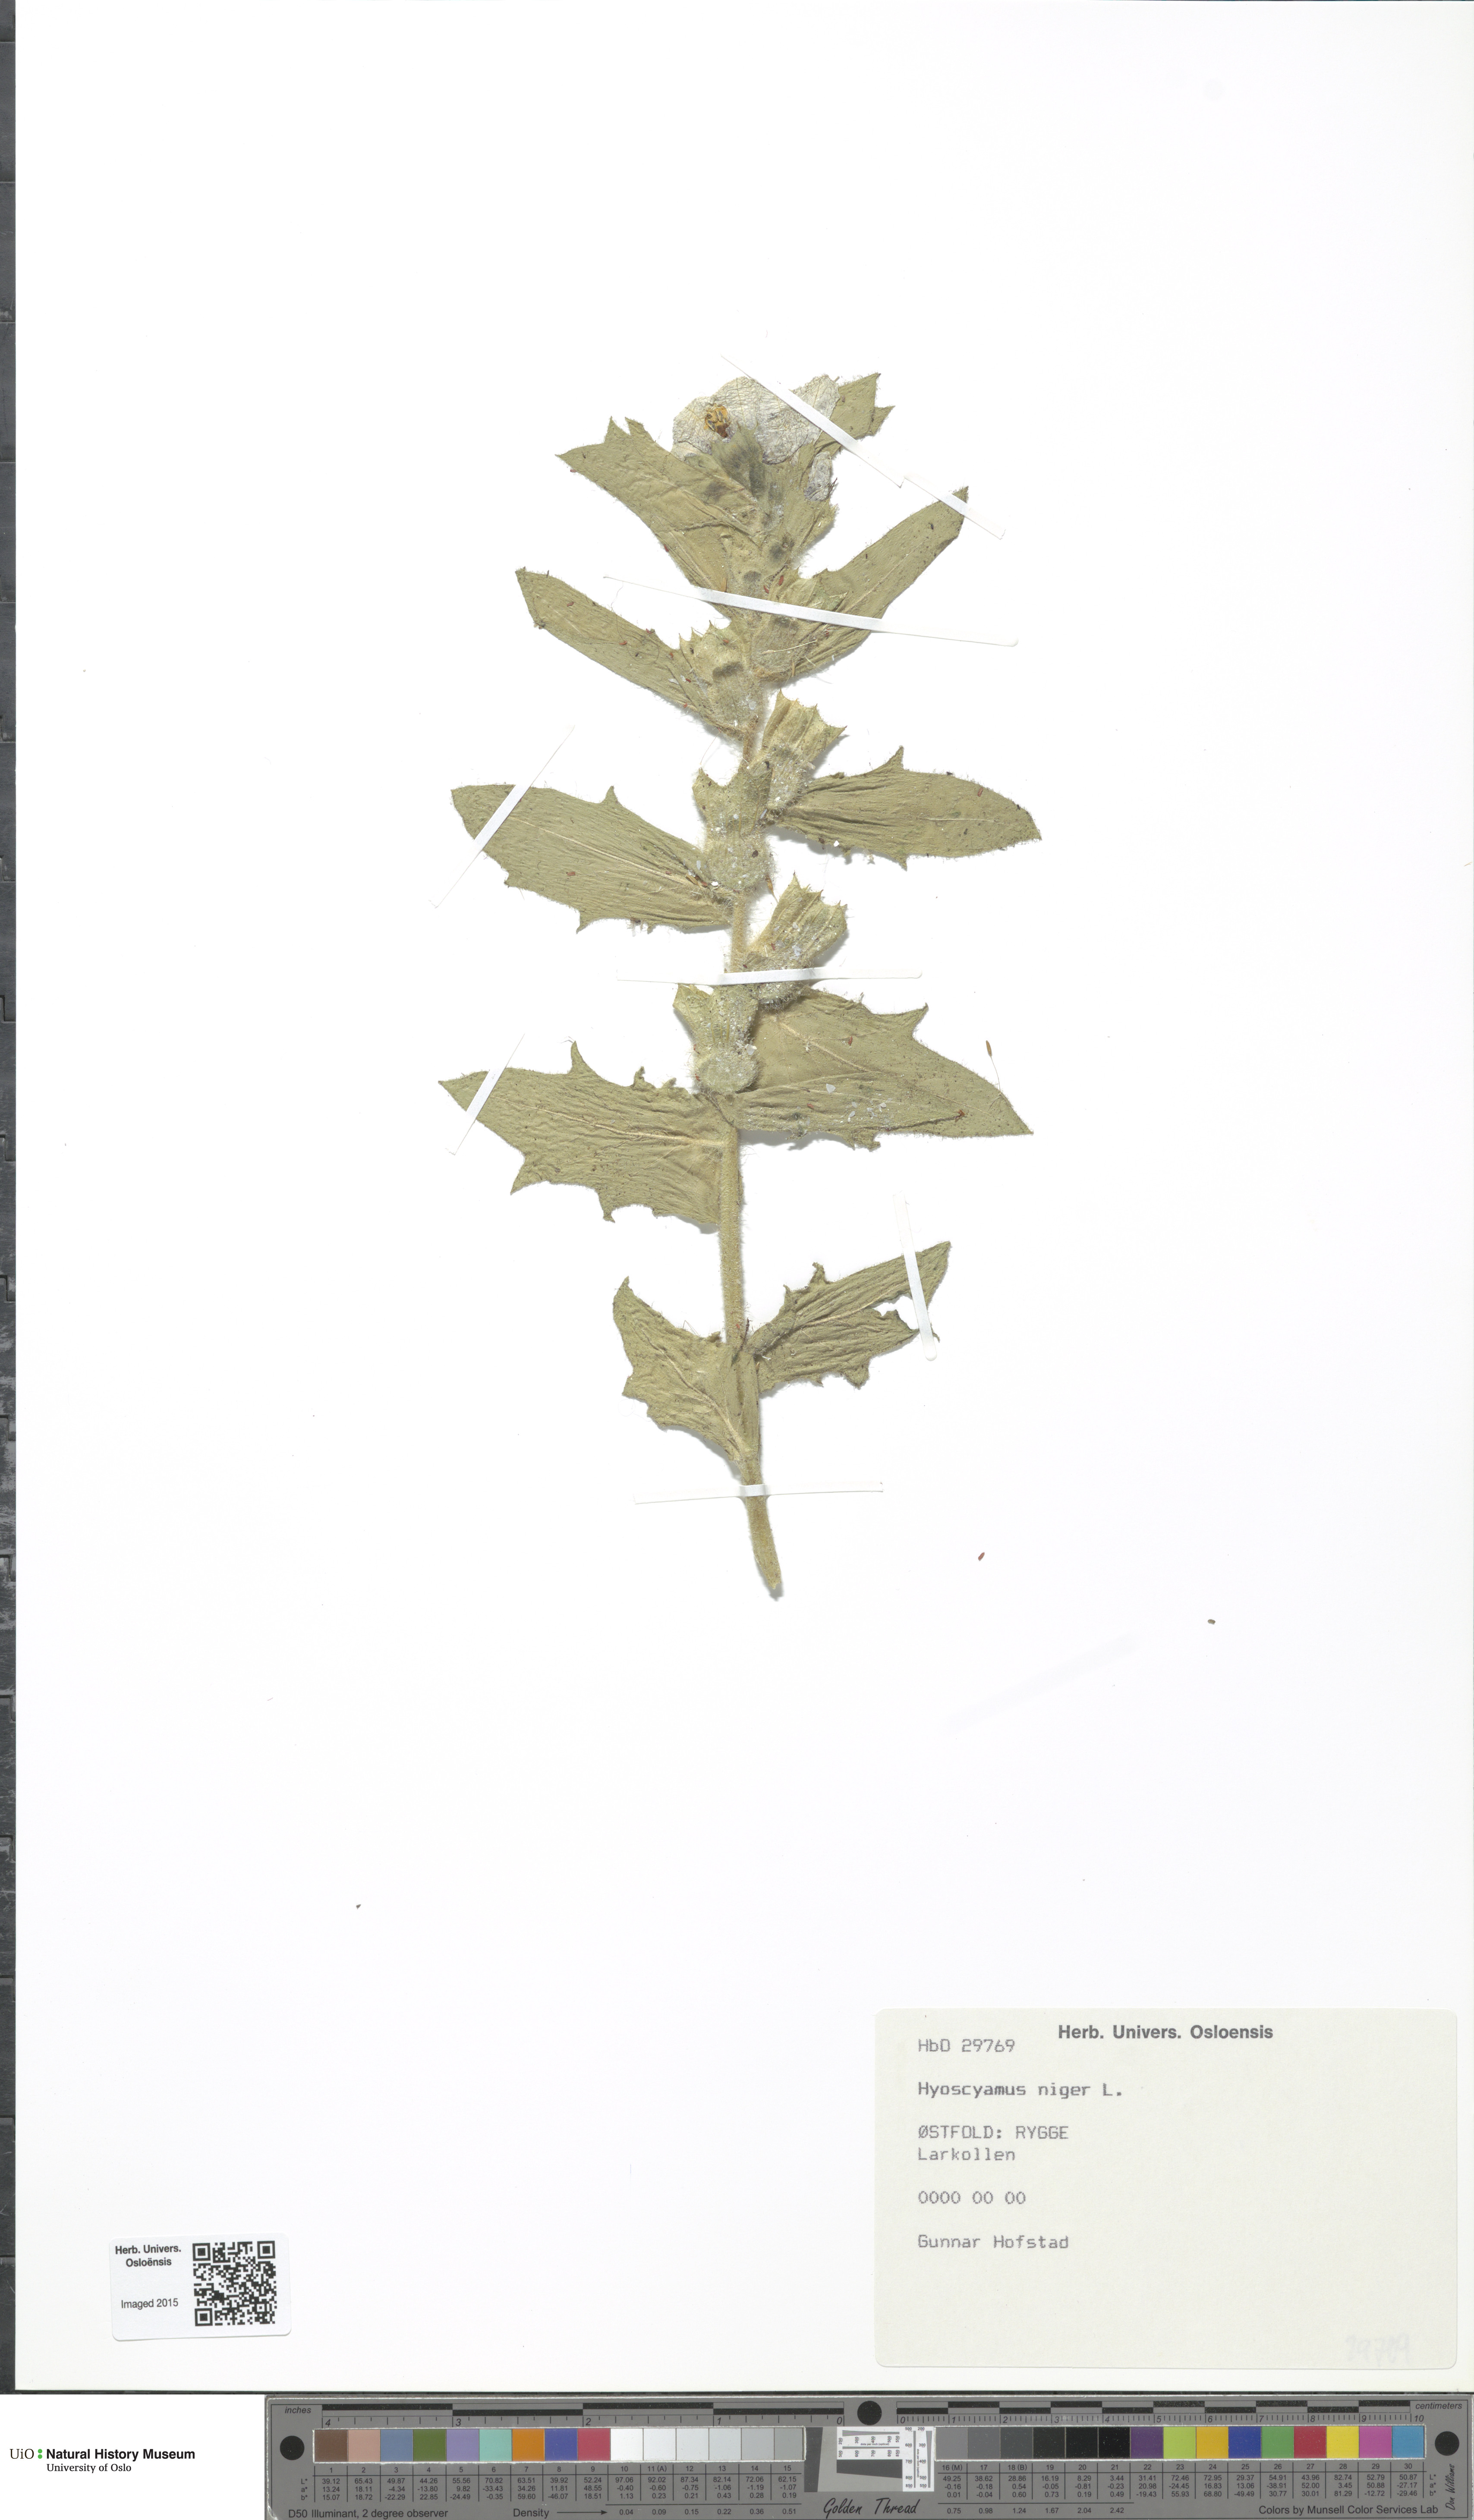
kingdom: Plantae
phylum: Tracheophyta
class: Magnoliopsida
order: Solanales
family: Solanaceae
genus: Hyoscyamus
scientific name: Hyoscyamus niger
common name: Henbane
